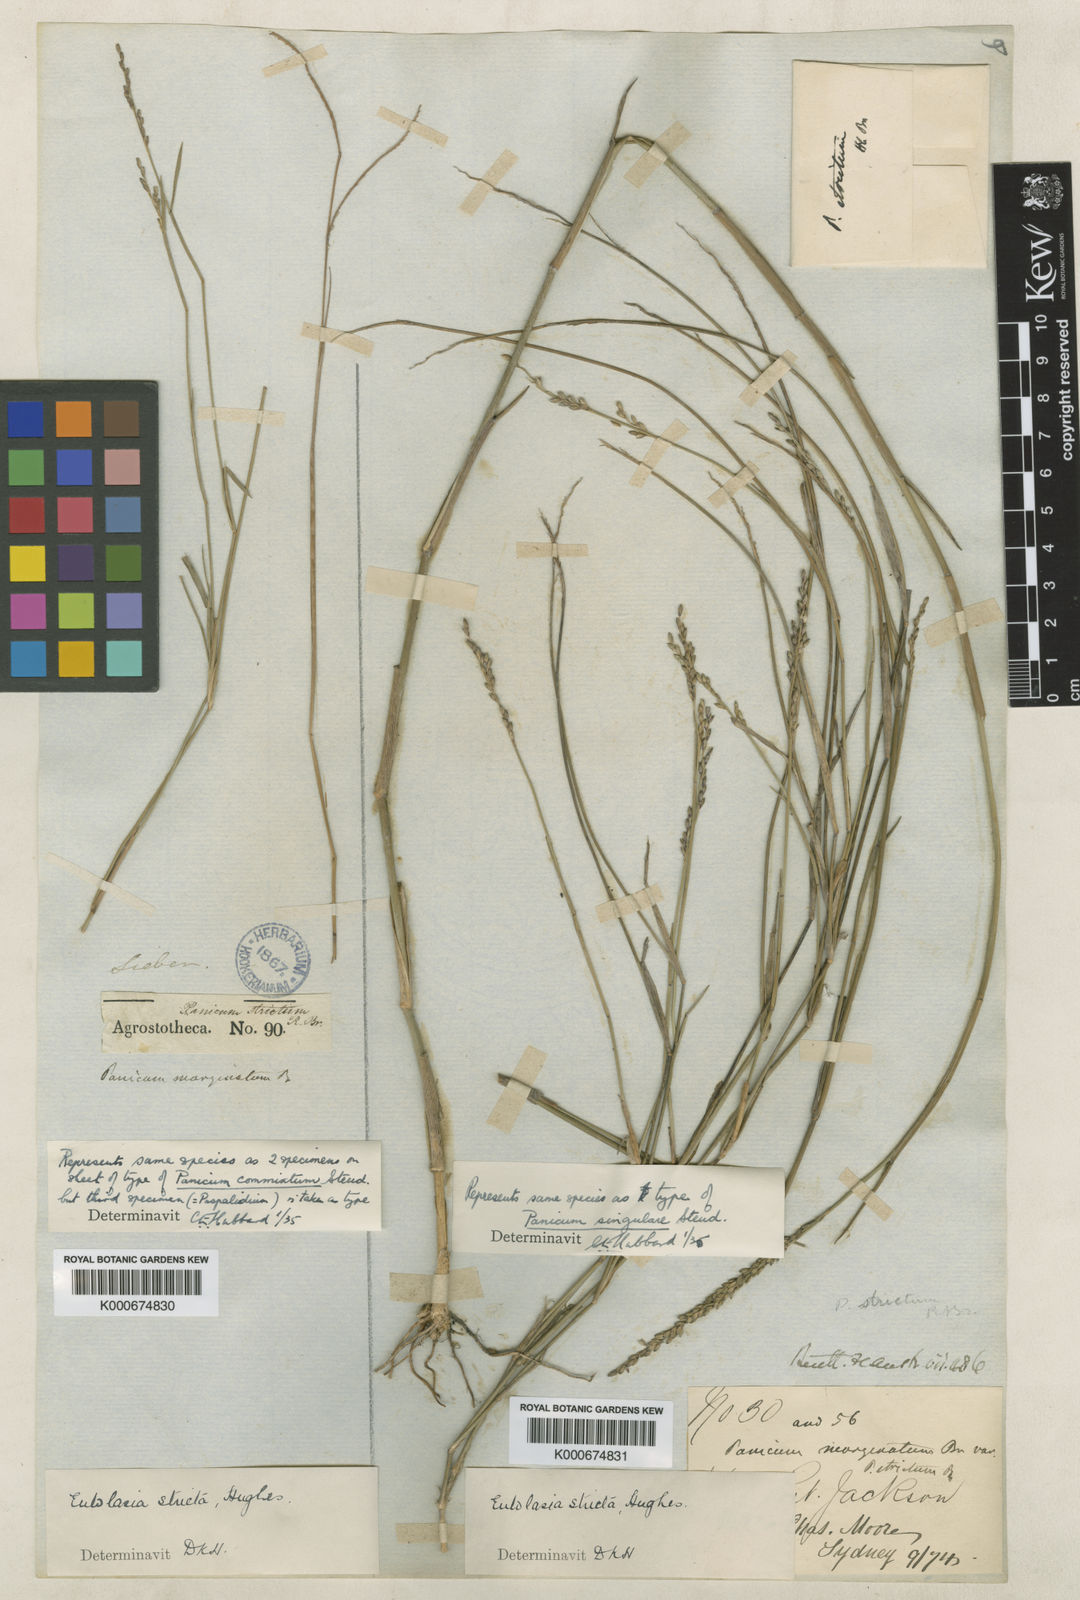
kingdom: Plantae
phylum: Tracheophyta
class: Liliopsida
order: Poales
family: Poaceae
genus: Entolasia
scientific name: Entolasia stricta
